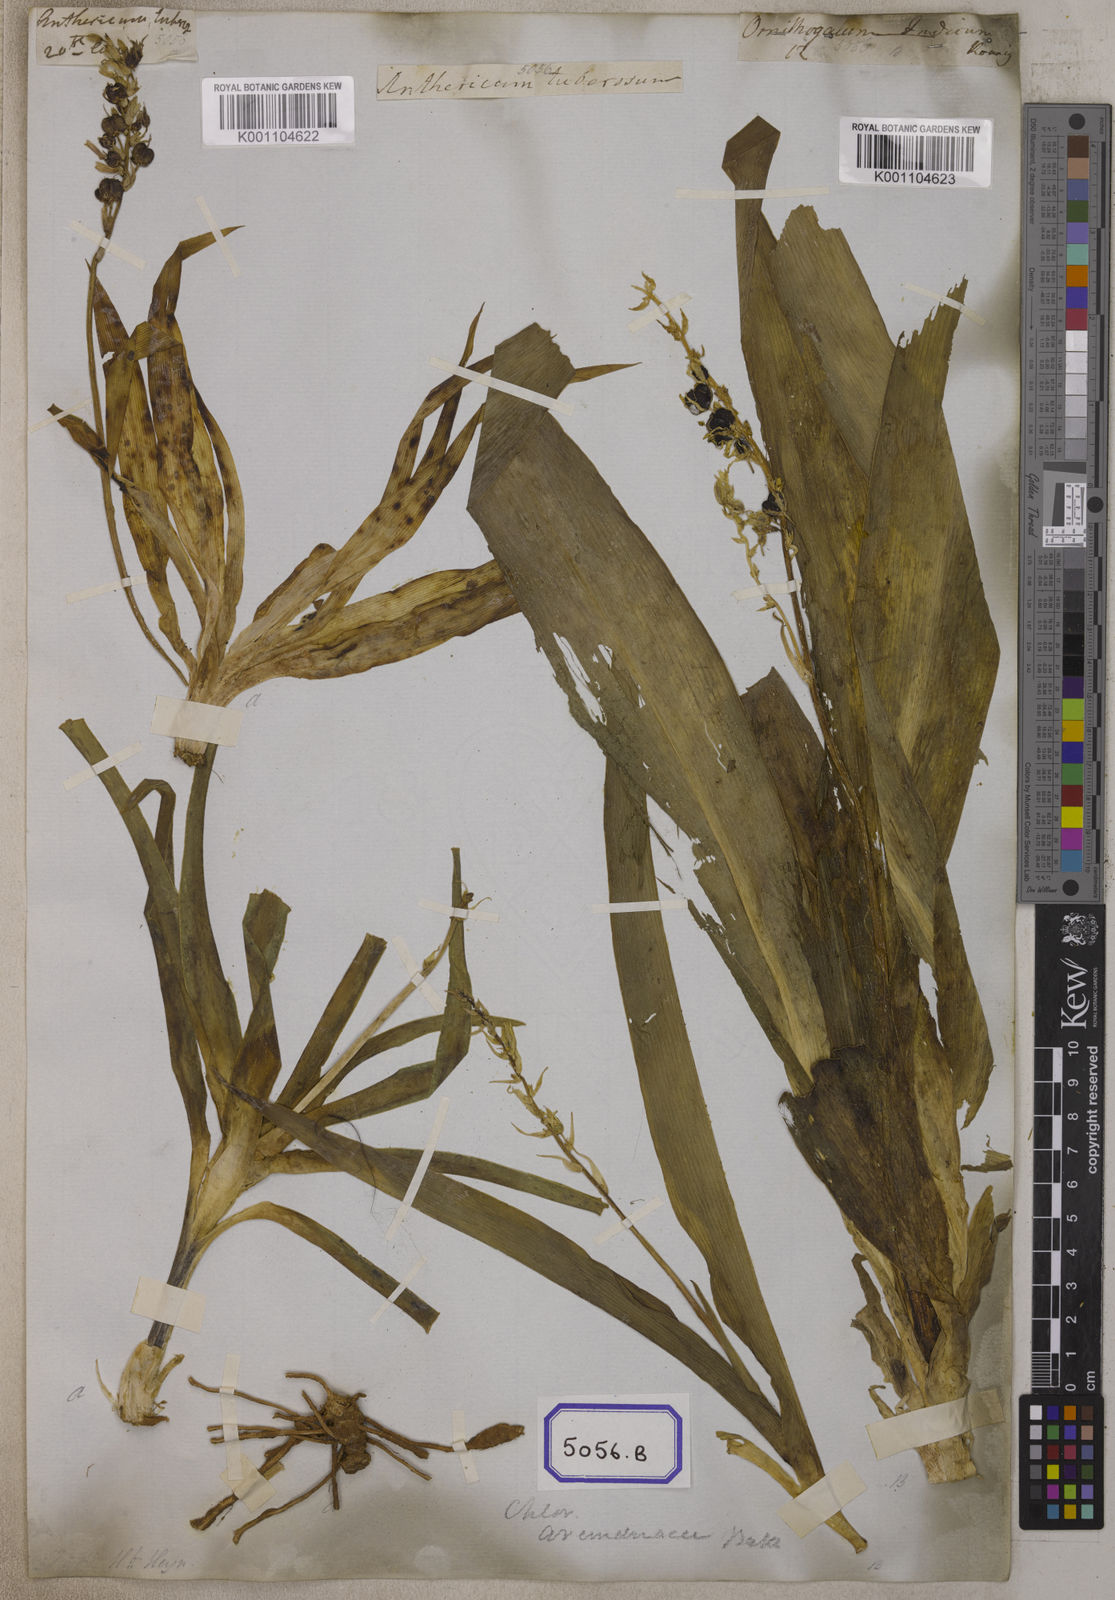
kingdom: Plantae
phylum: Tracheophyta
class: Liliopsida
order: Asparagales
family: Iridaceae
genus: Phalangium
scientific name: Phalangium
